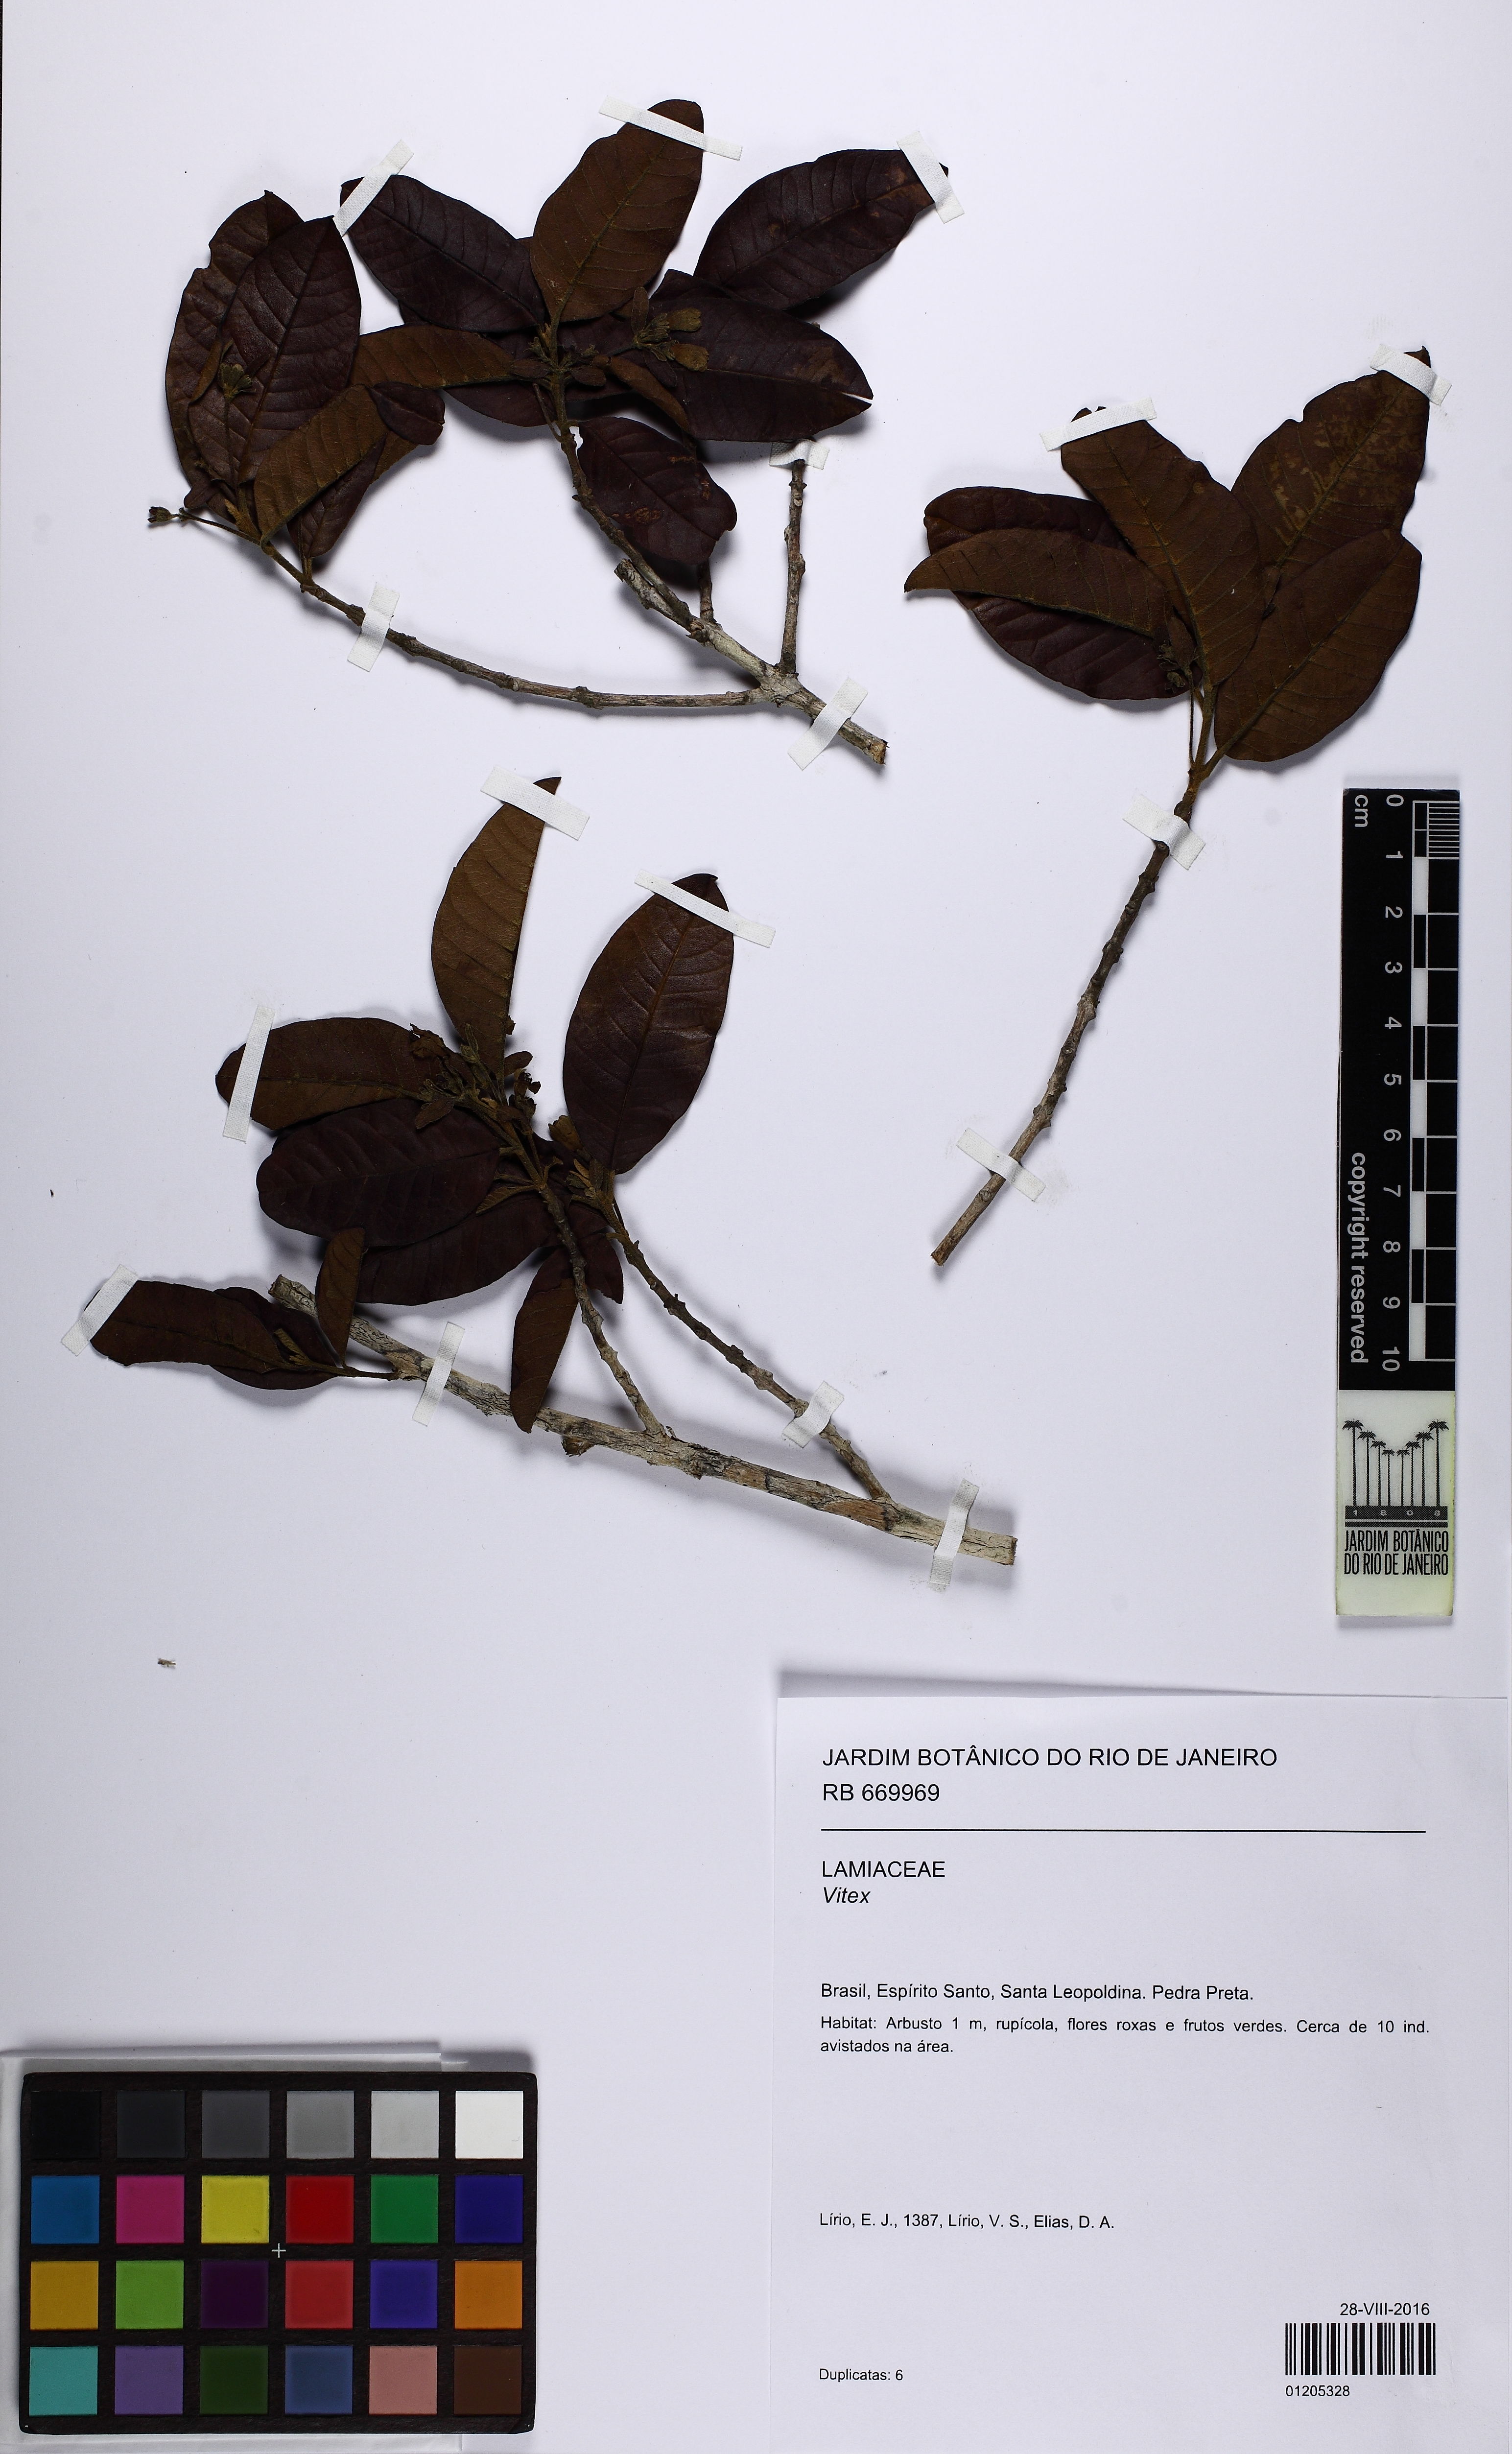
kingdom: Plantae
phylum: Tracheophyta
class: Magnoliopsida
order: Lamiales
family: Lamiaceae
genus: Vitex
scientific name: Vitex
